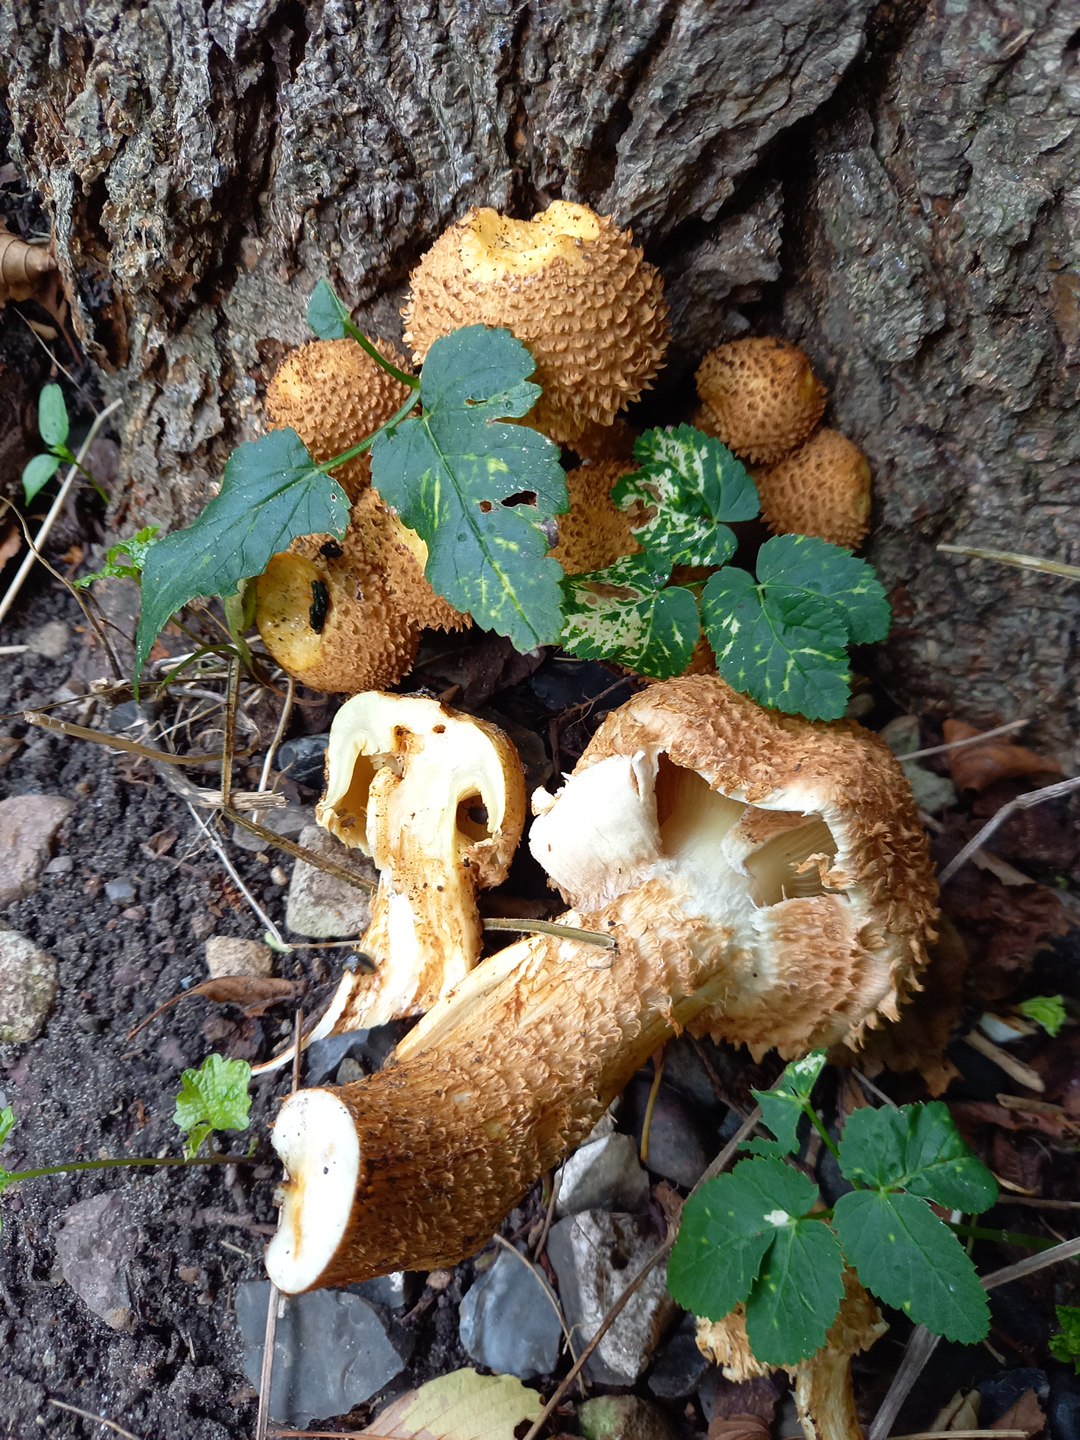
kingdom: Fungi
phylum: Basidiomycota
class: Agaricomycetes
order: Agaricales
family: Strophariaceae
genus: Pholiota
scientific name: Pholiota squarrosa
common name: krumskællet skælhat
